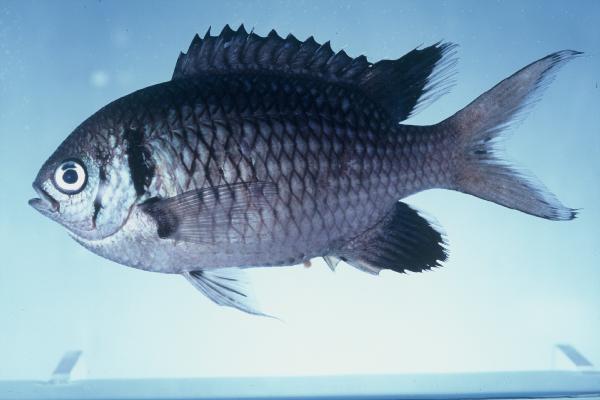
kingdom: Animalia
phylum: Chordata
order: Perciformes
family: Pomacentridae
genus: Chromis
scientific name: Chromis opercularis
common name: Doublebar chromis
